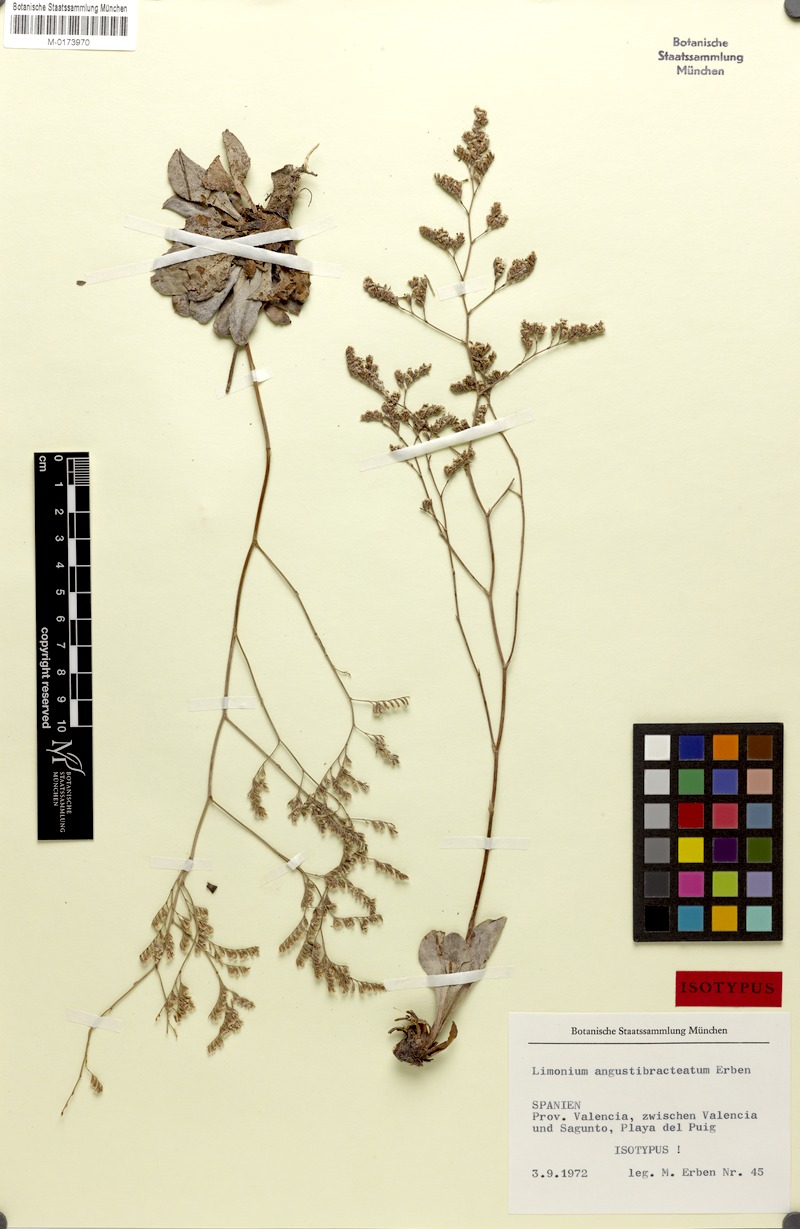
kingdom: Plantae
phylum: Tracheophyta
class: Magnoliopsida
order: Caryophyllales
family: Plumbaginaceae
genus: Limonium
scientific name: Limonium angustibracteatum
